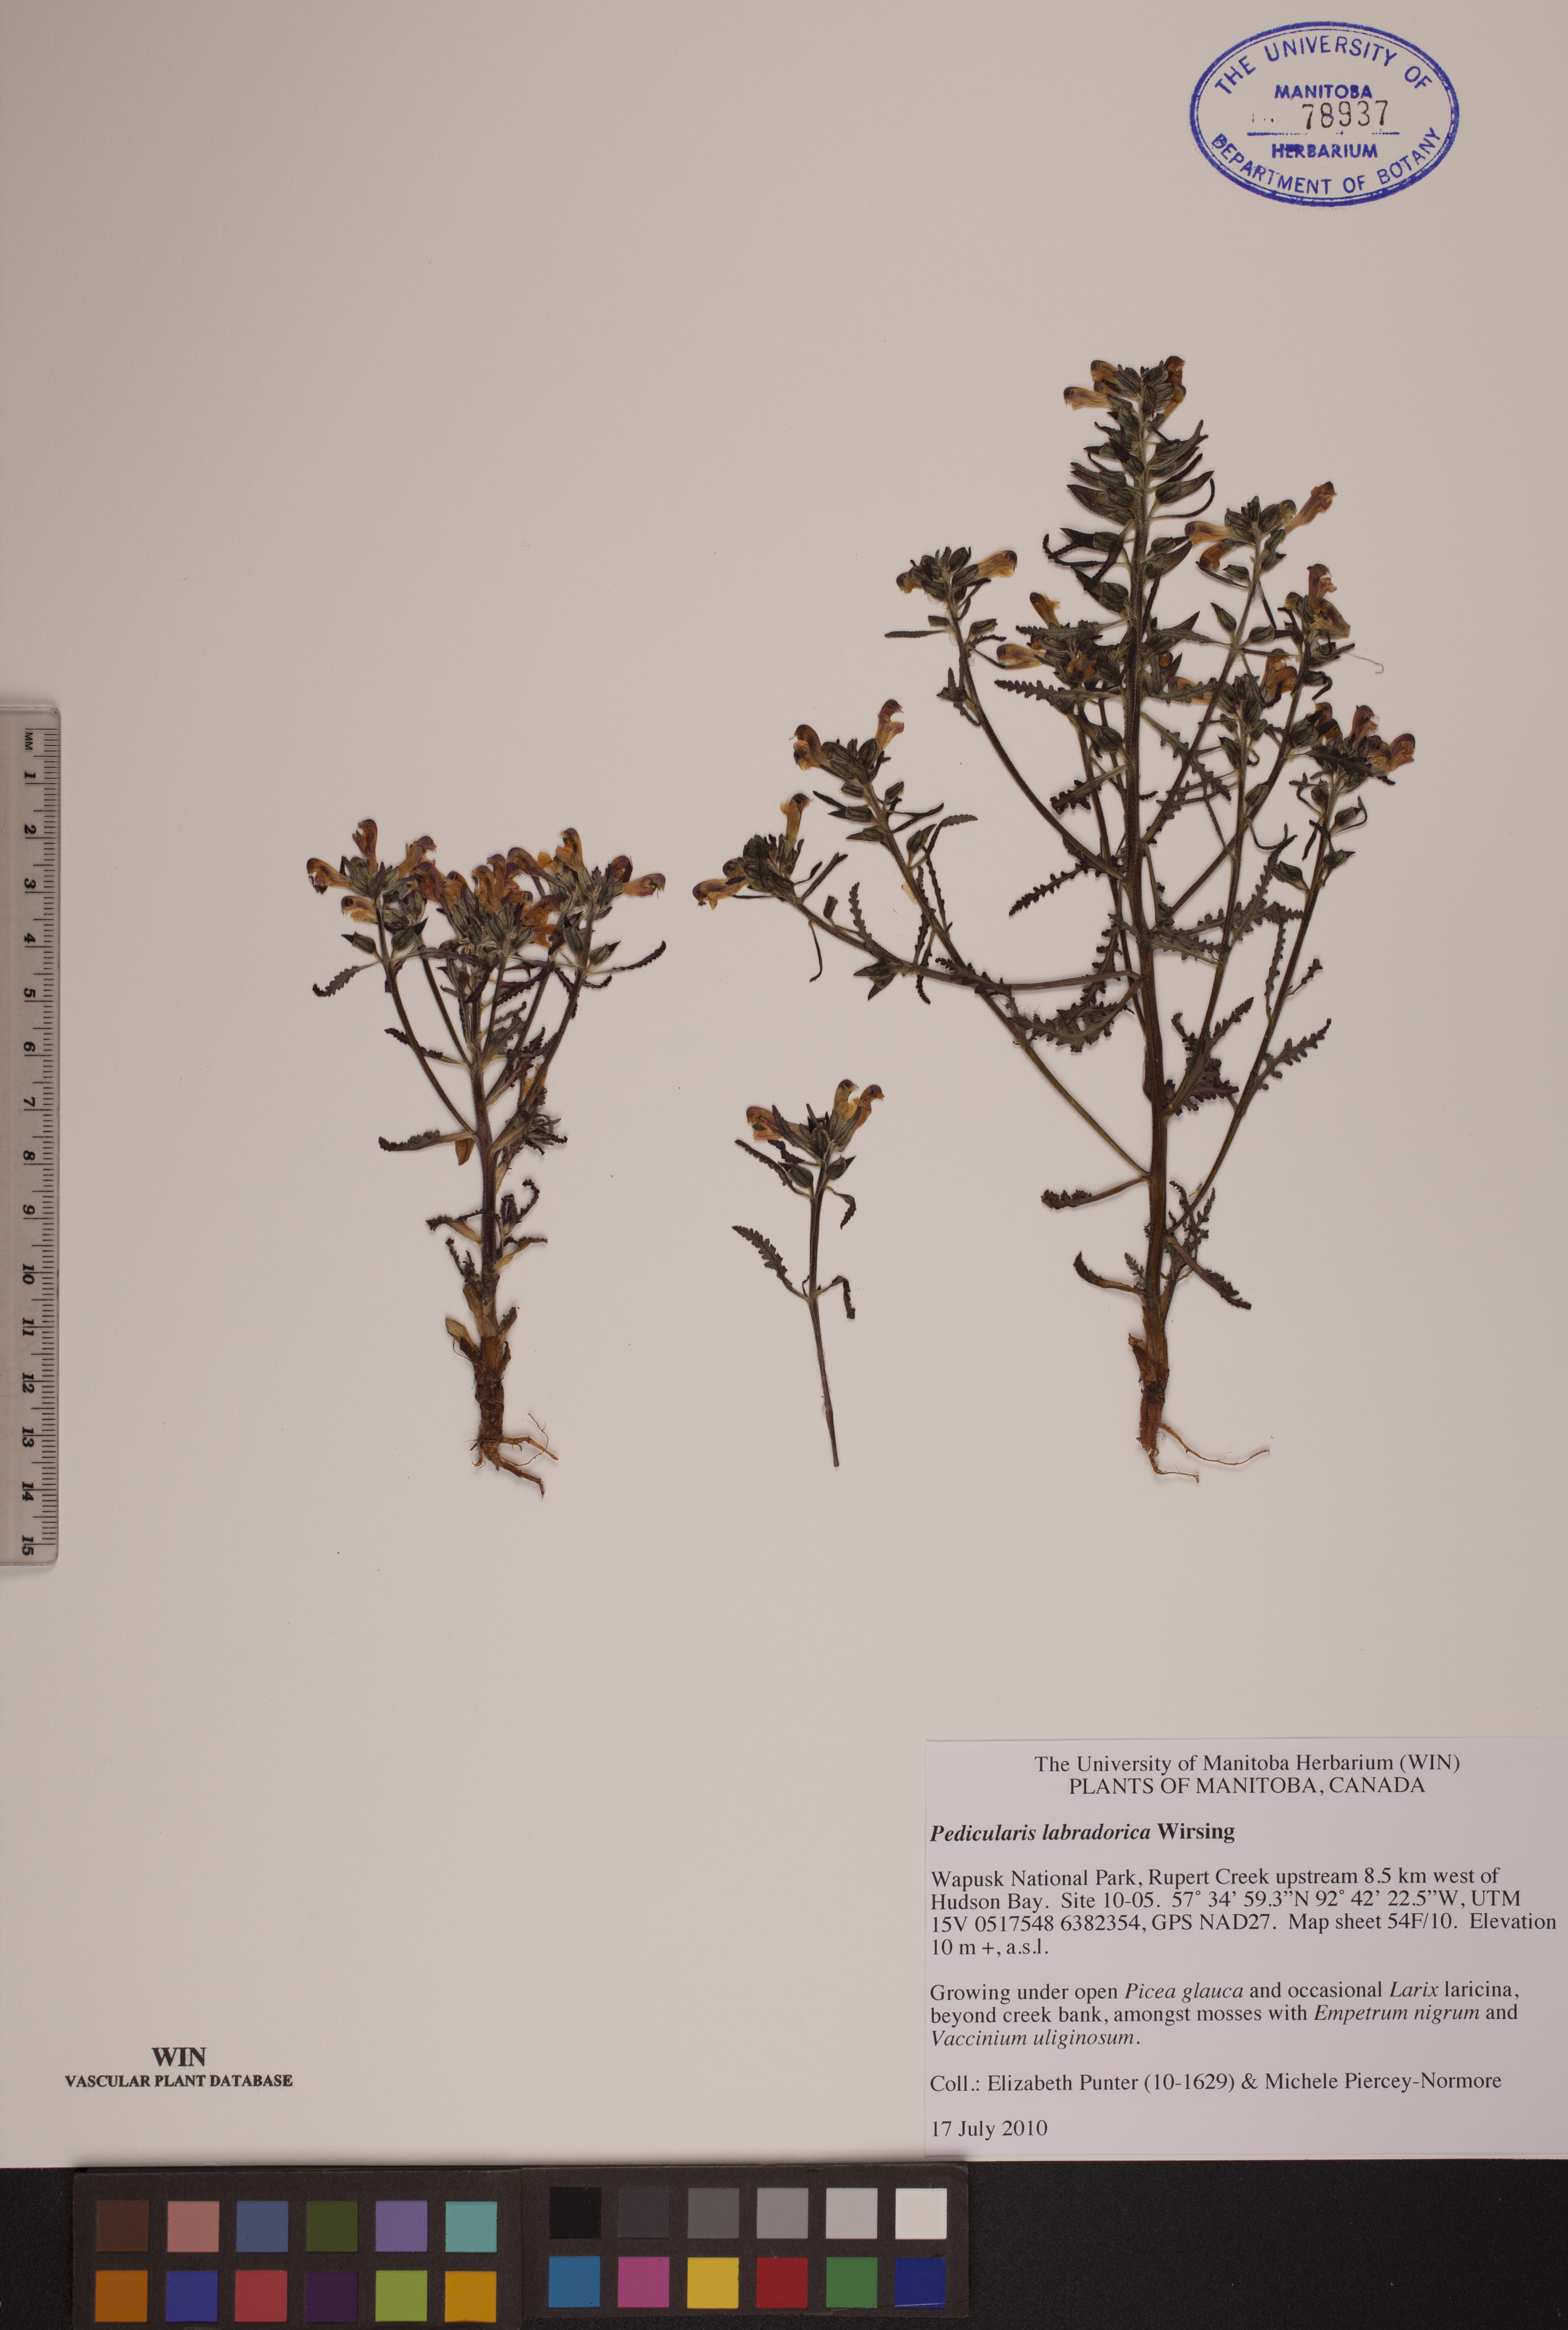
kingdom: Plantae
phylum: Tracheophyta
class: Magnoliopsida
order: Lamiales
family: Orobanchaceae
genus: Pedicularis
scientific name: Pedicularis labradorica
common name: Labrador lousewort
